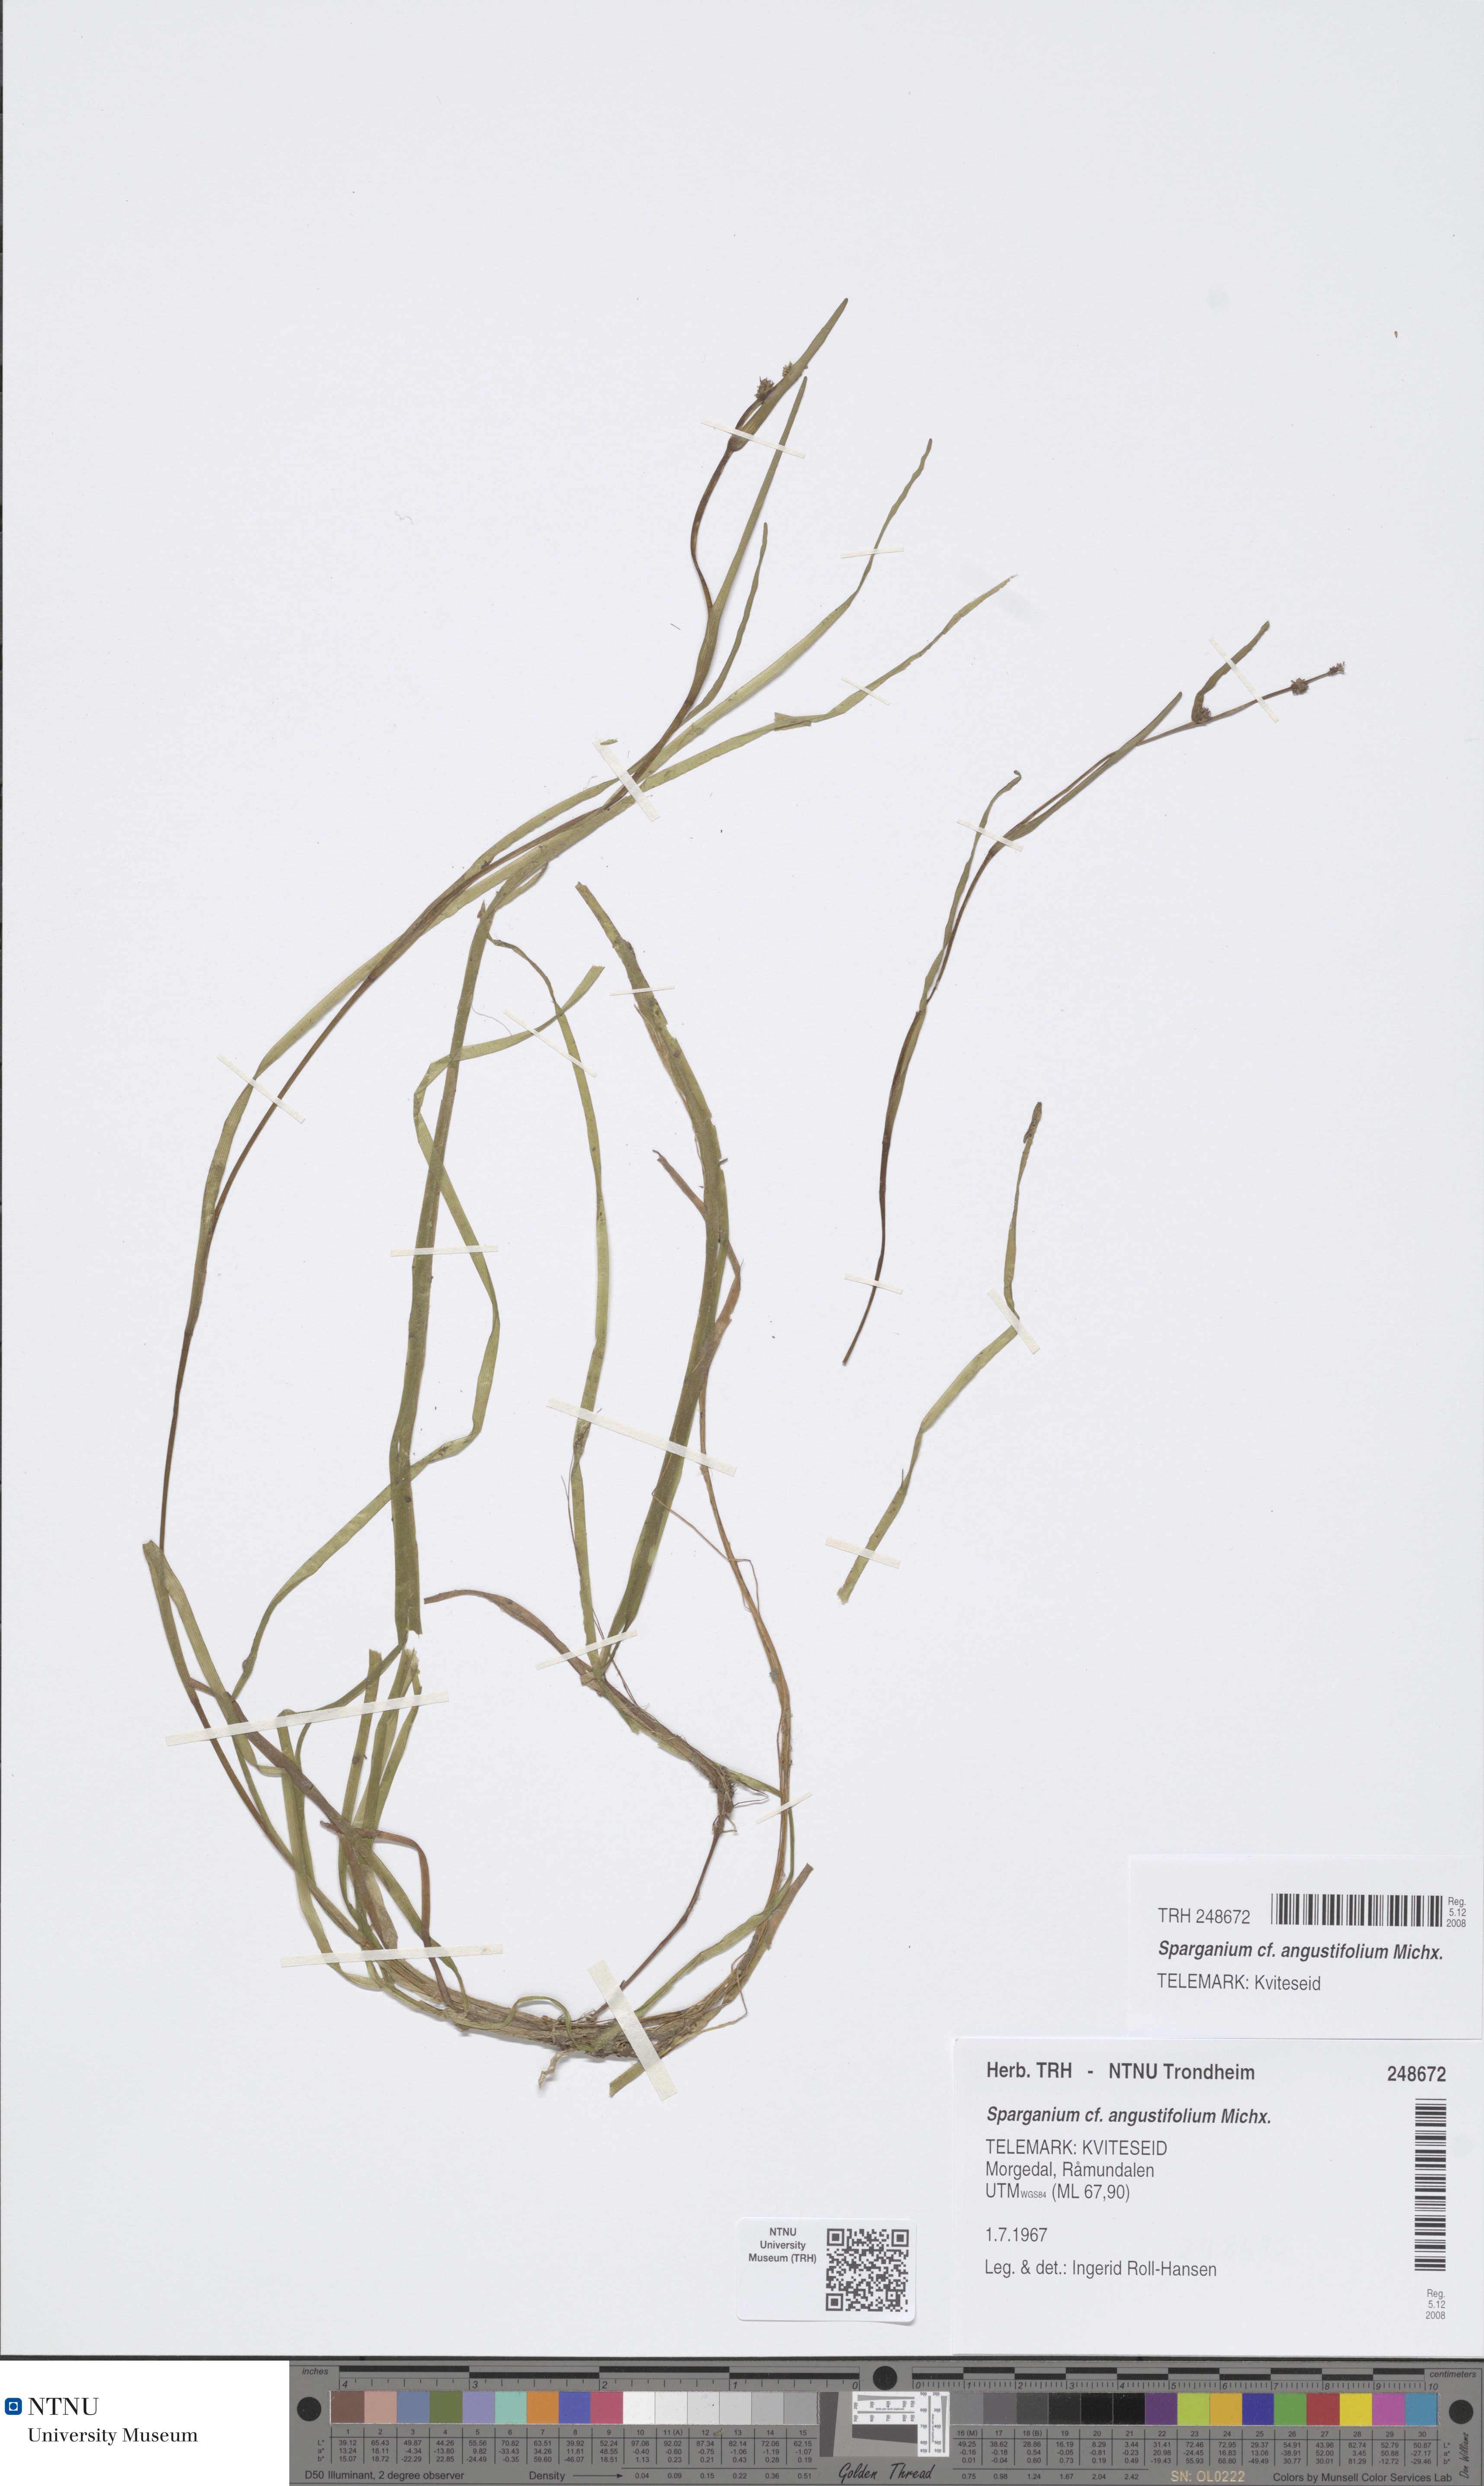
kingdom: Plantae
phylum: Tracheophyta
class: Liliopsida
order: Poales
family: Typhaceae
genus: Sparganium
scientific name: Sparganium angustifolium
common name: Floating bur-reed
